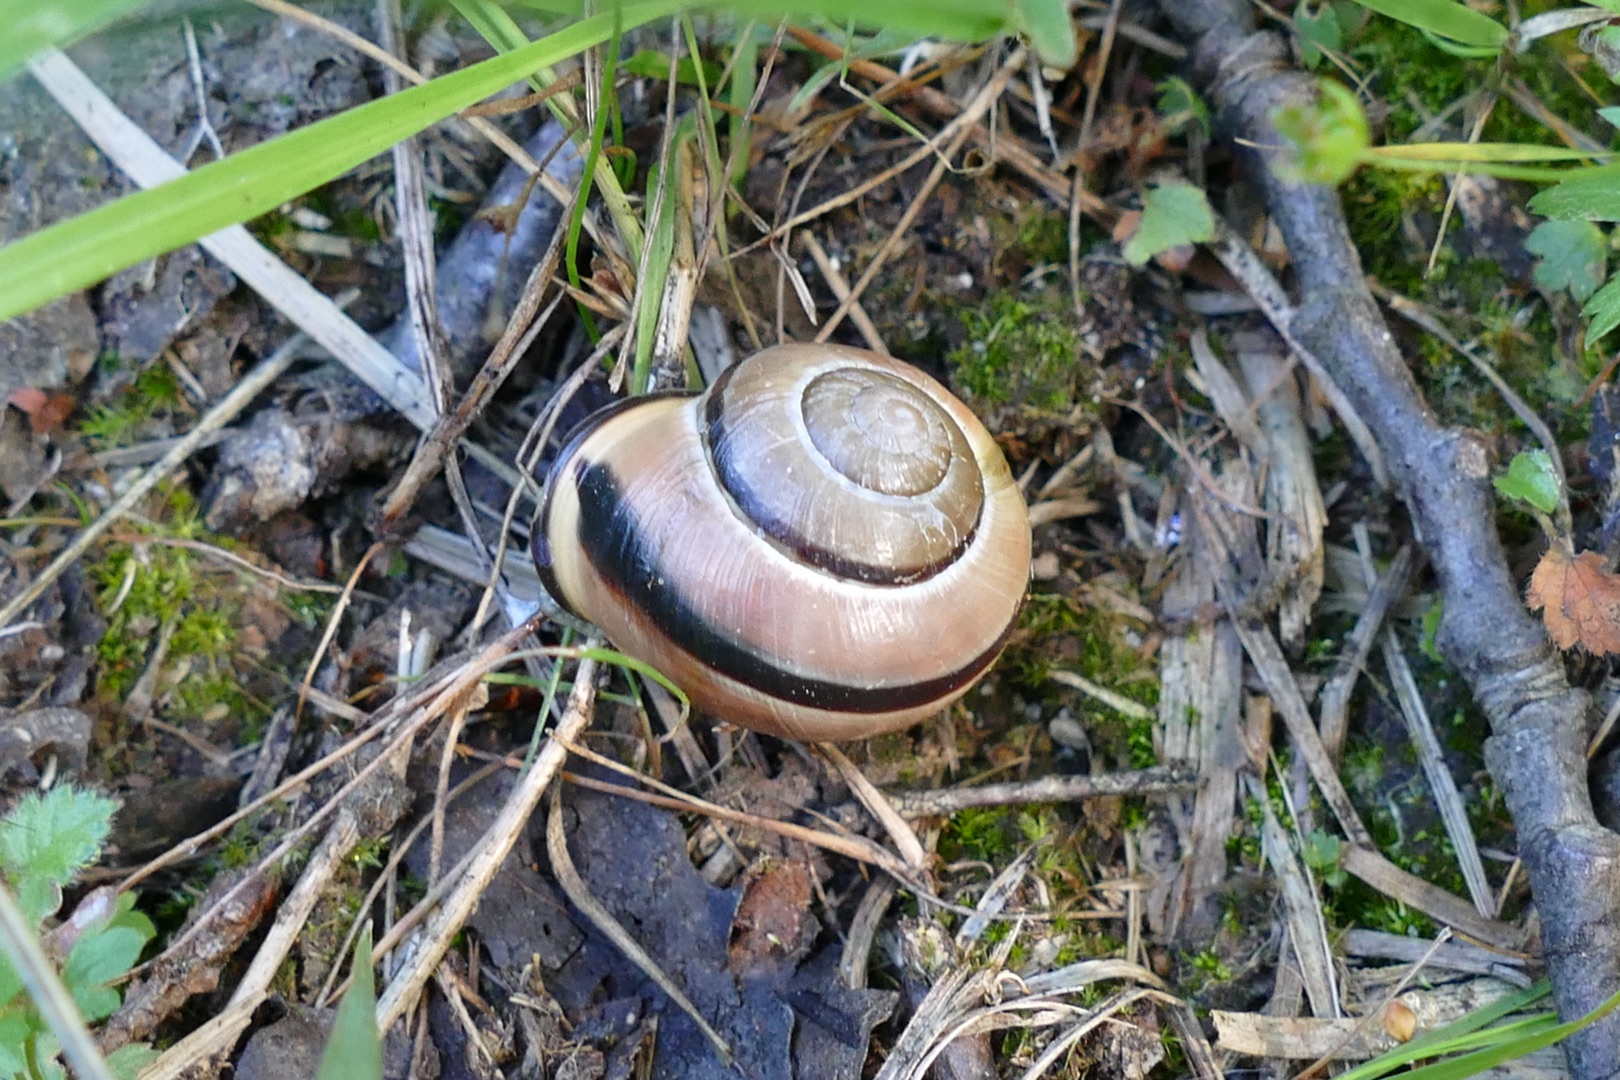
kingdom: Animalia
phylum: Mollusca
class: Gastropoda
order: Stylommatophora
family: Helicidae
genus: Cepaea
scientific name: Cepaea nemoralis
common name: Lundsnegl
